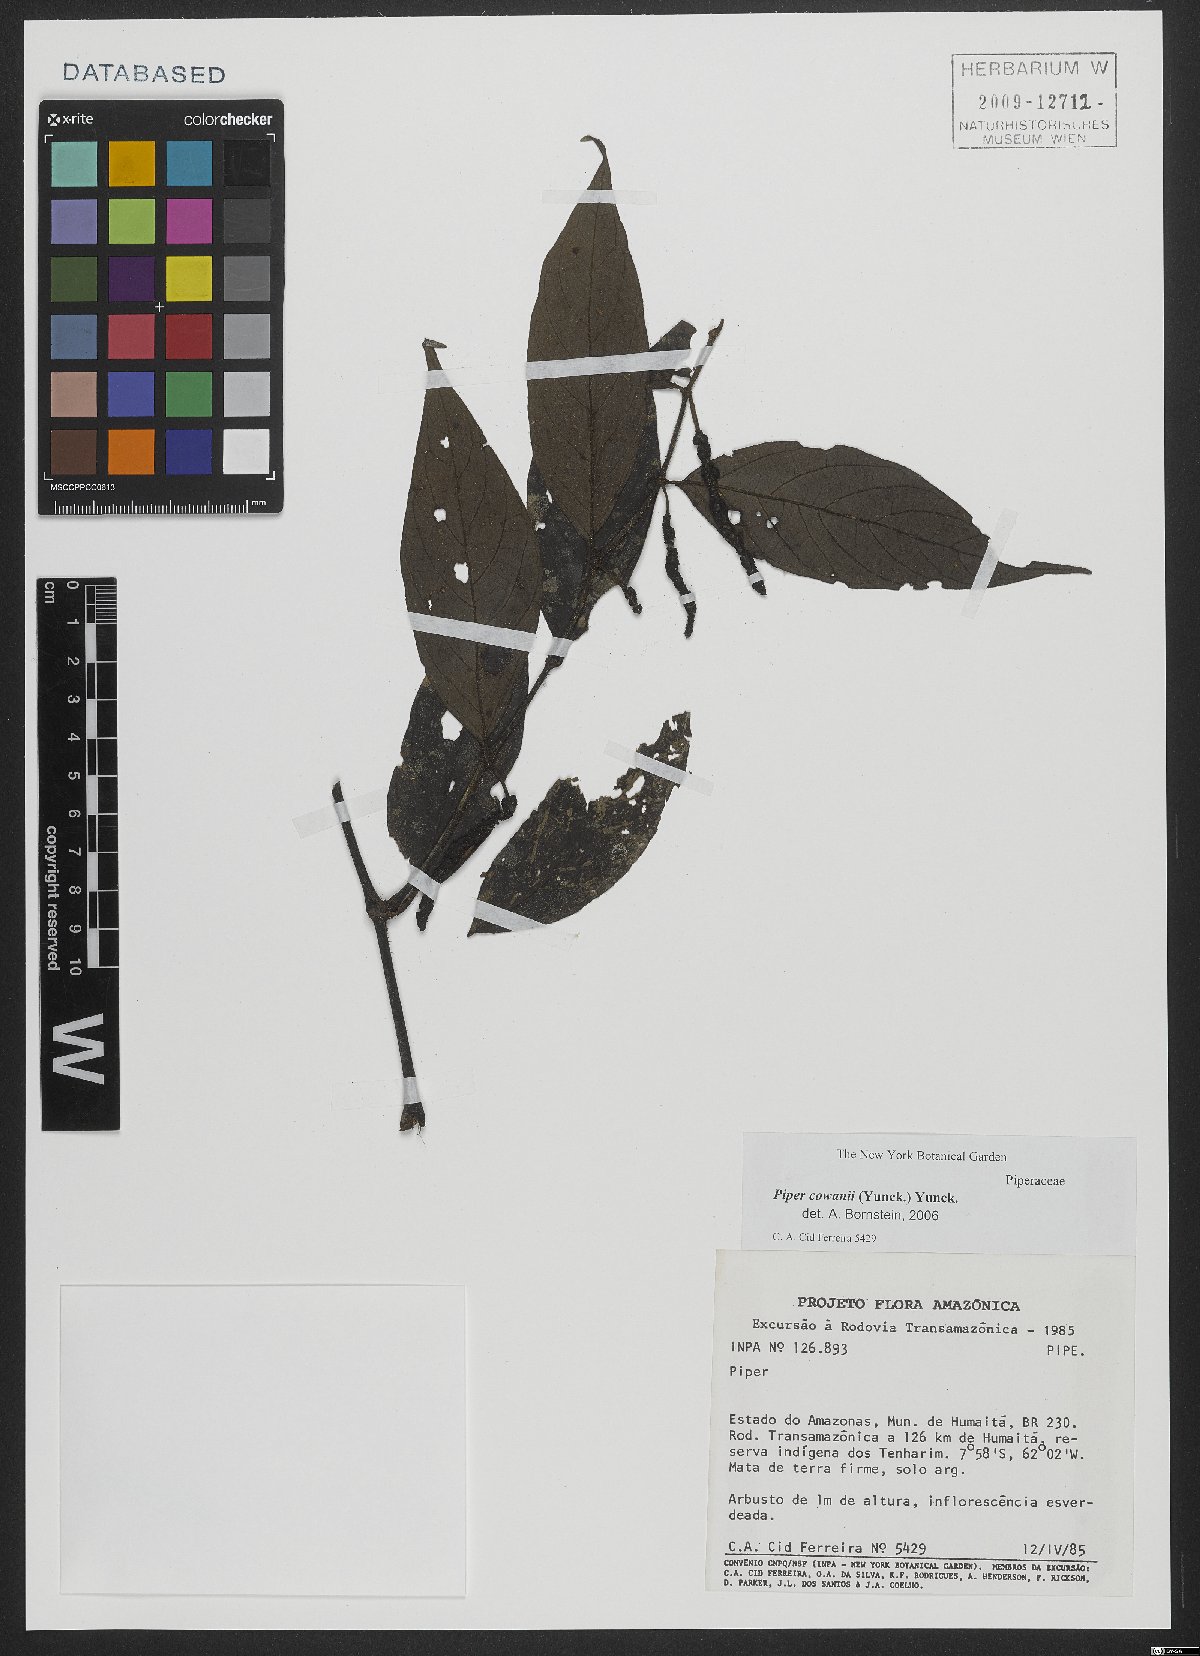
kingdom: Plantae
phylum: Tracheophyta
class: Magnoliopsida
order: Piperales
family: Piperaceae
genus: Piper
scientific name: Piper cowanii
